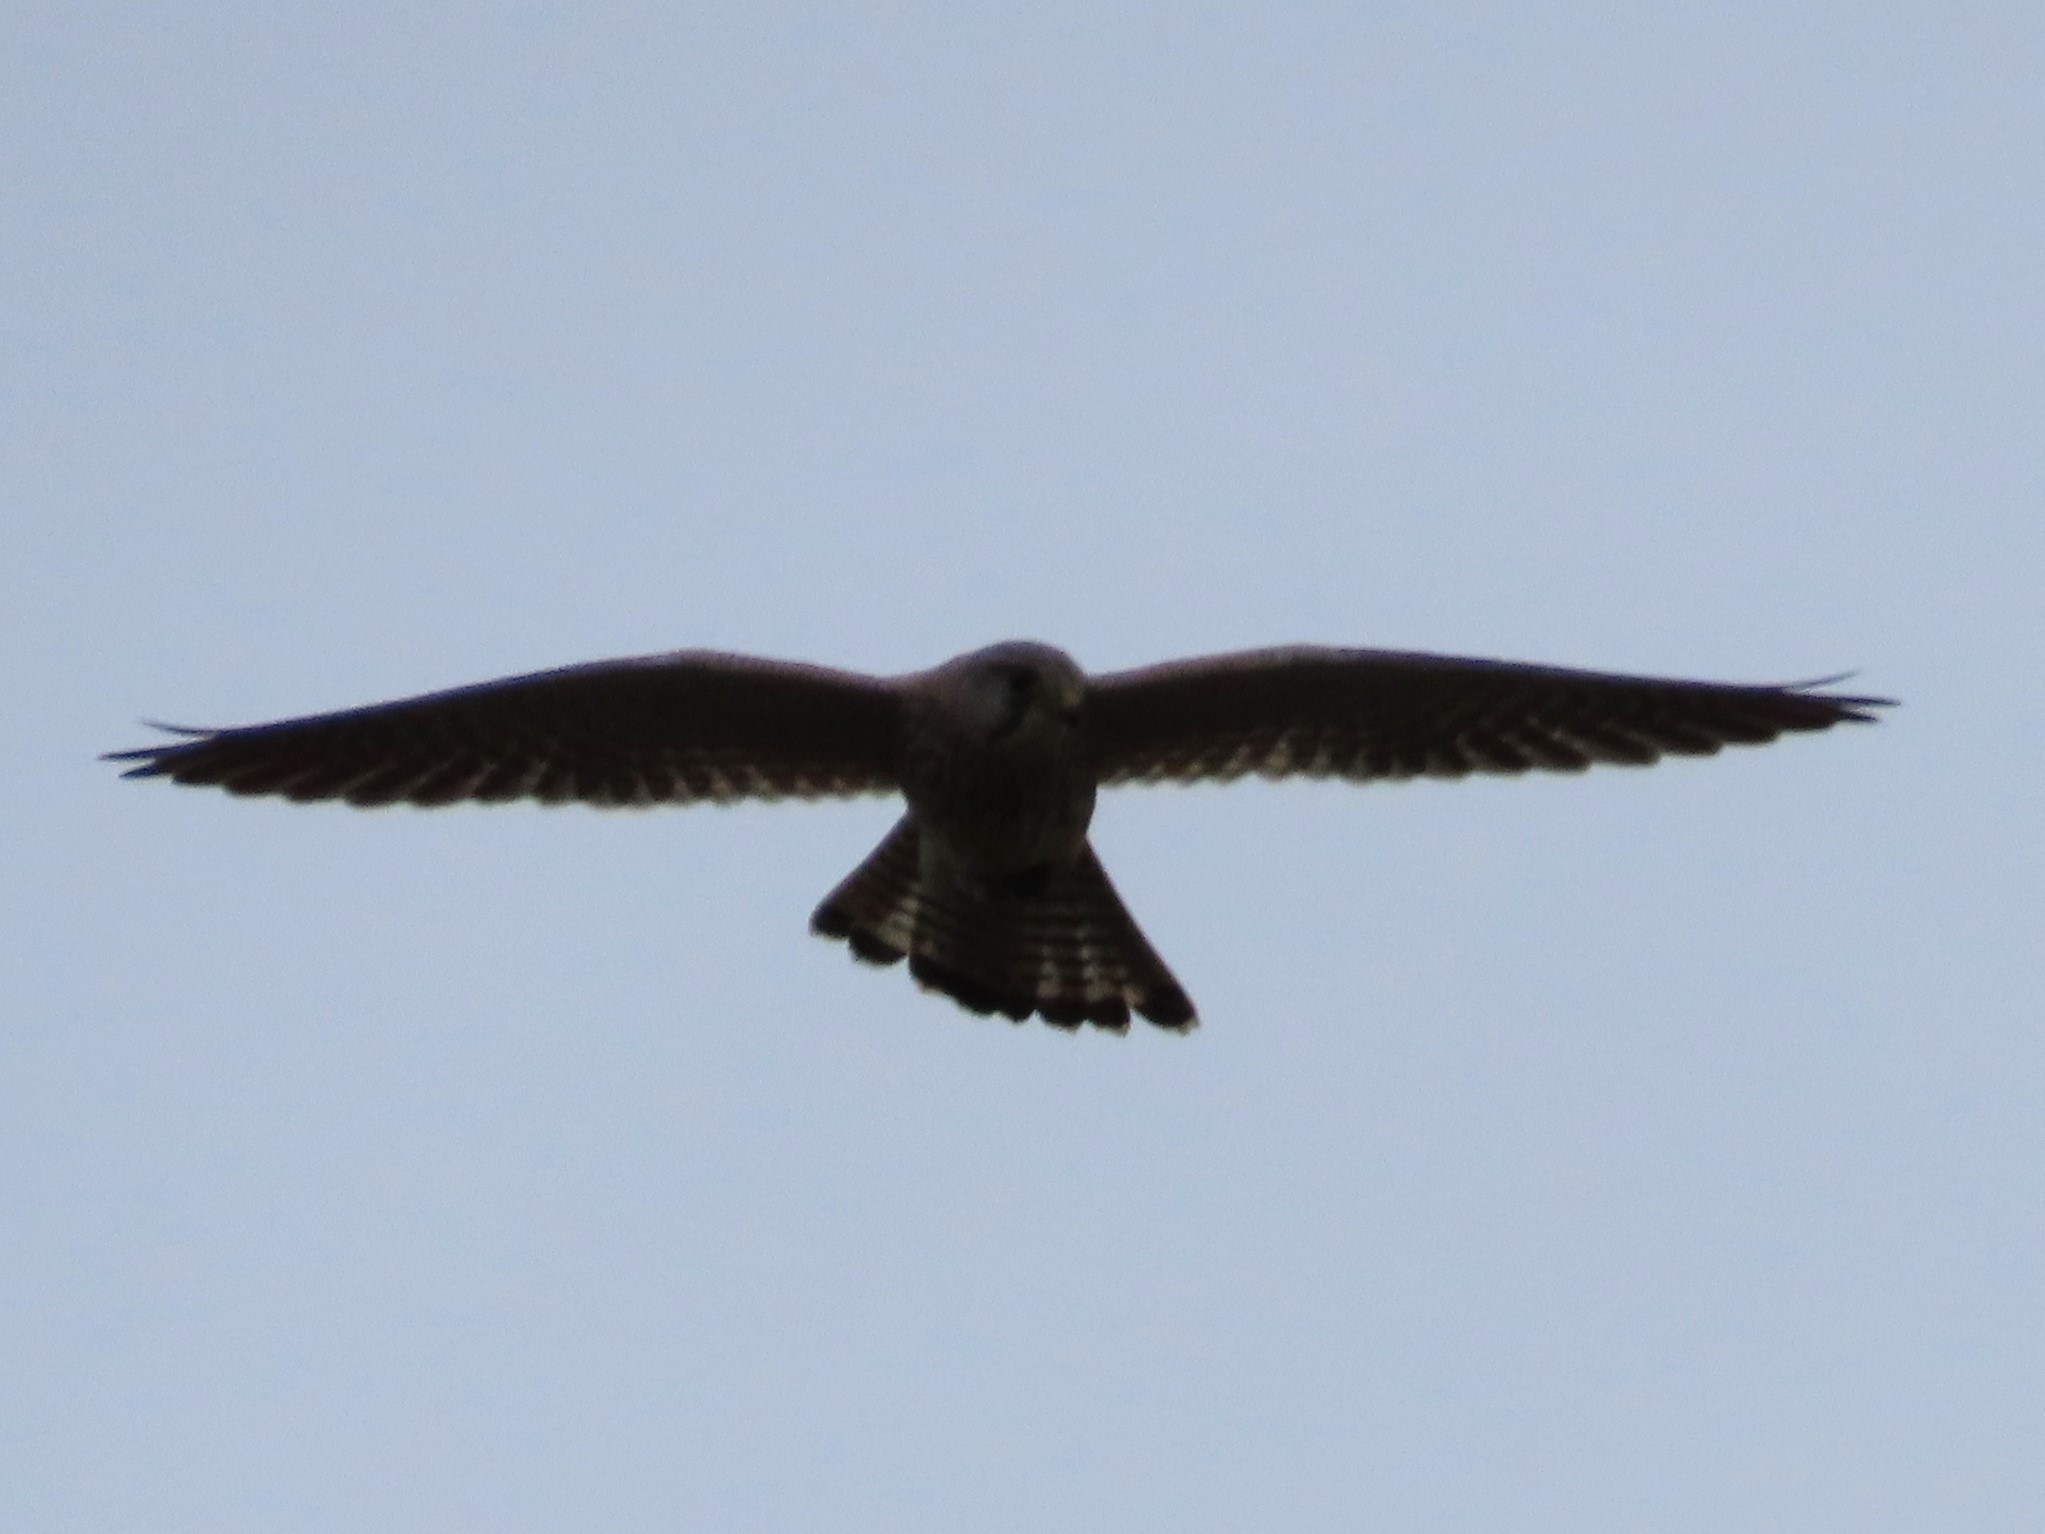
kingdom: Animalia
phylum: Chordata
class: Aves
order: Falconiformes
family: Falconidae
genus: Falco
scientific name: Falco tinnunculus
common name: Tårnfalk
